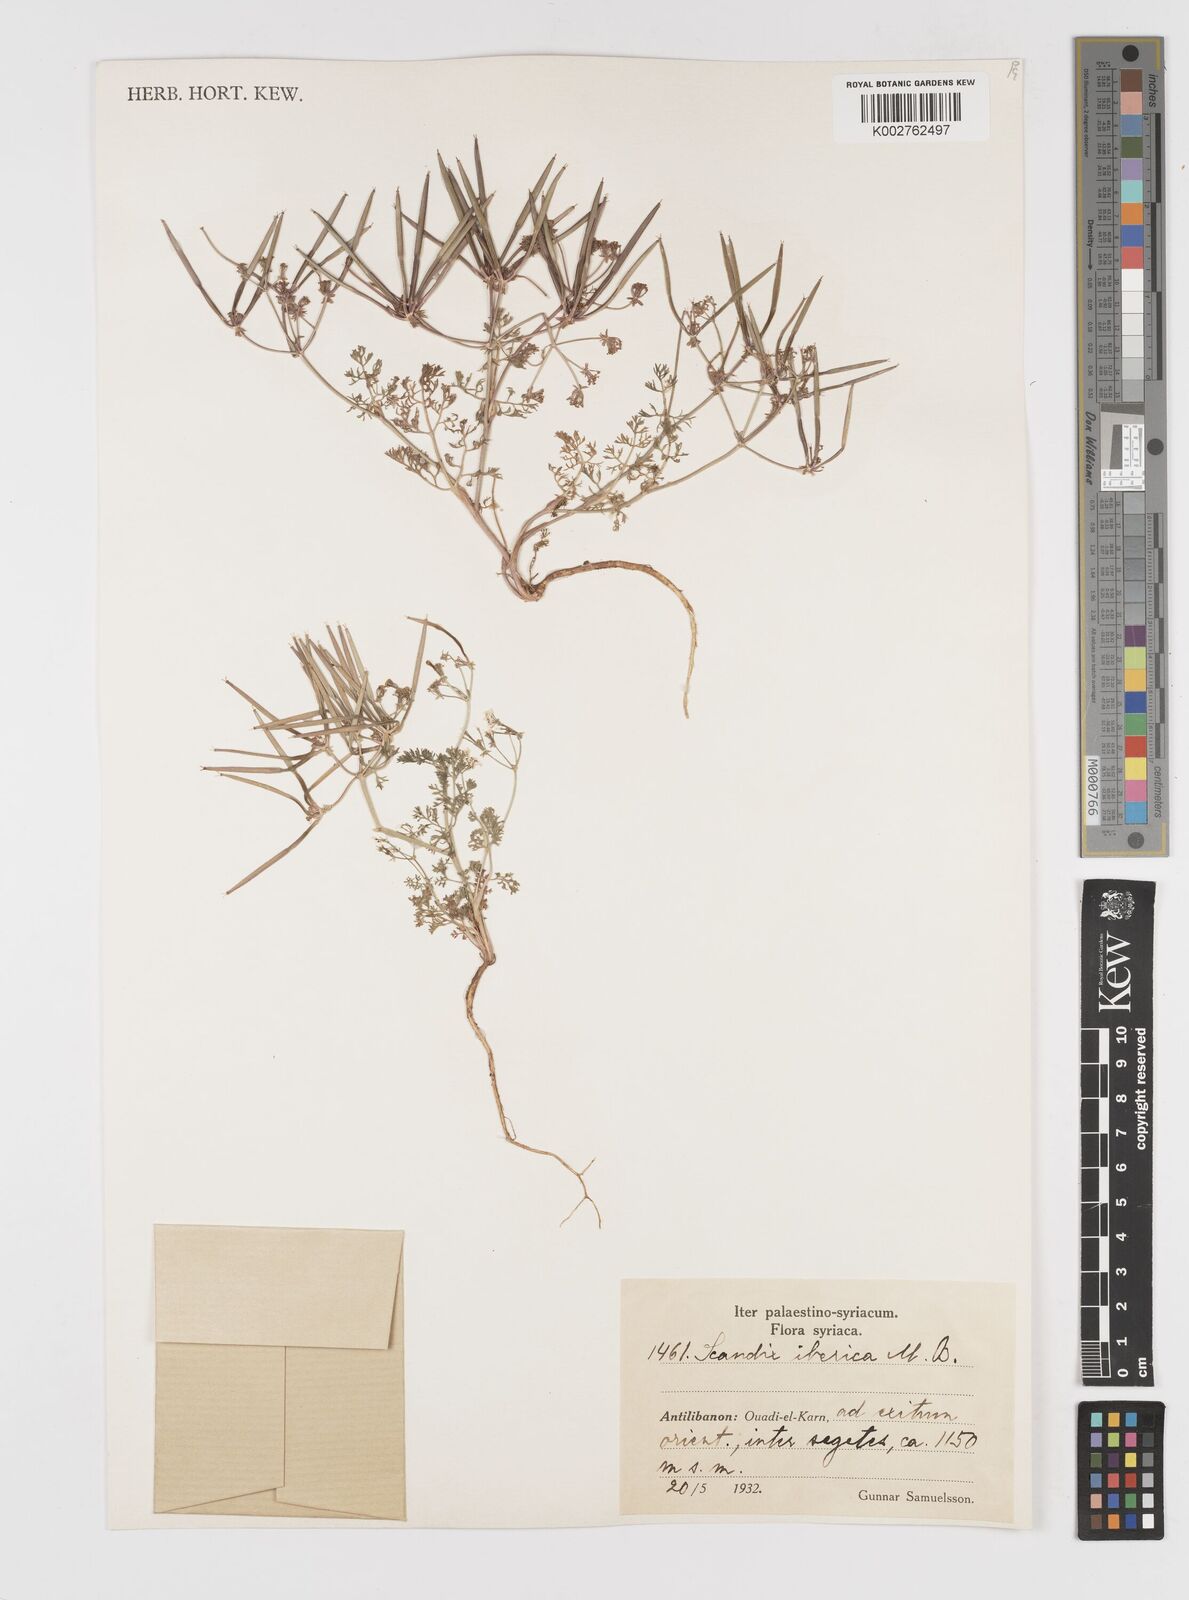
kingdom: Plantae
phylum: Tracheophyta
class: Magnoliopsida
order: Apiales
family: Apiaceae
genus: Scandix
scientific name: Scandix iberica
